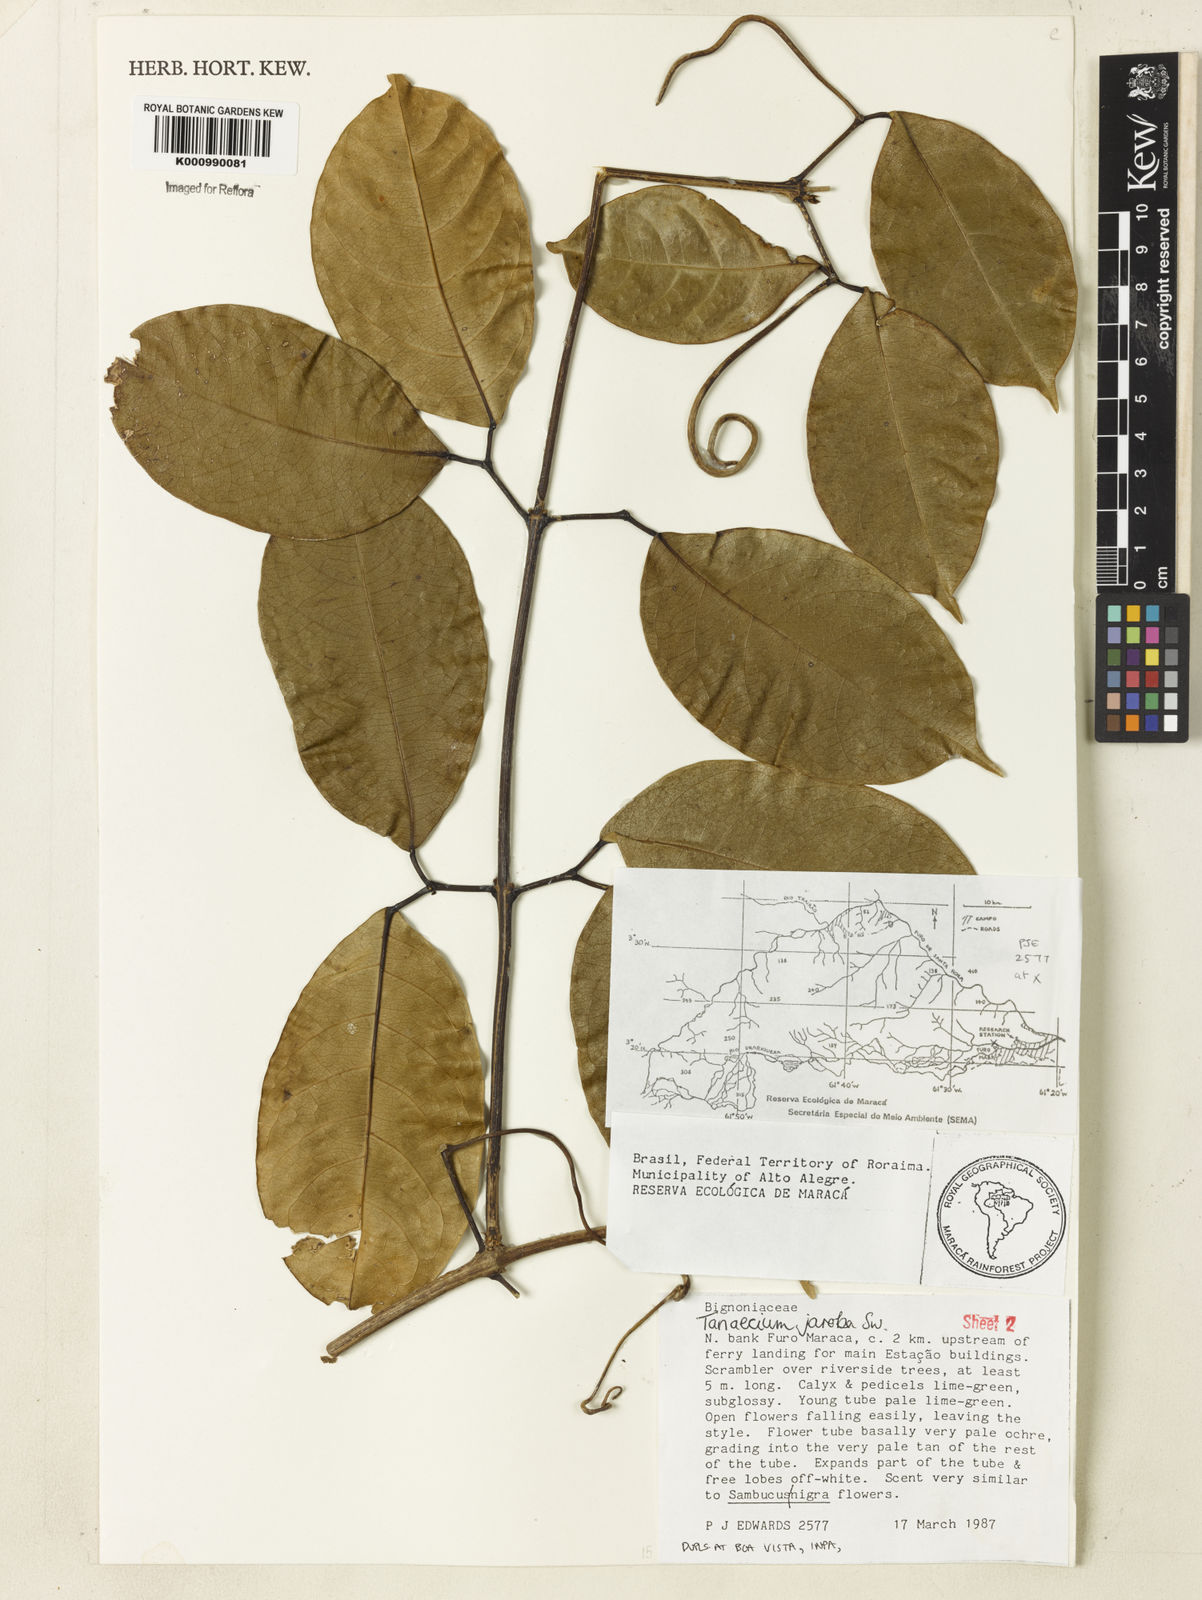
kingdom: Plantae
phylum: Tracheophyta
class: Magnoliopsida
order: Lamiales
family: Bignoniaceae
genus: Tanaecium
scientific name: Tanaecium jaroba
